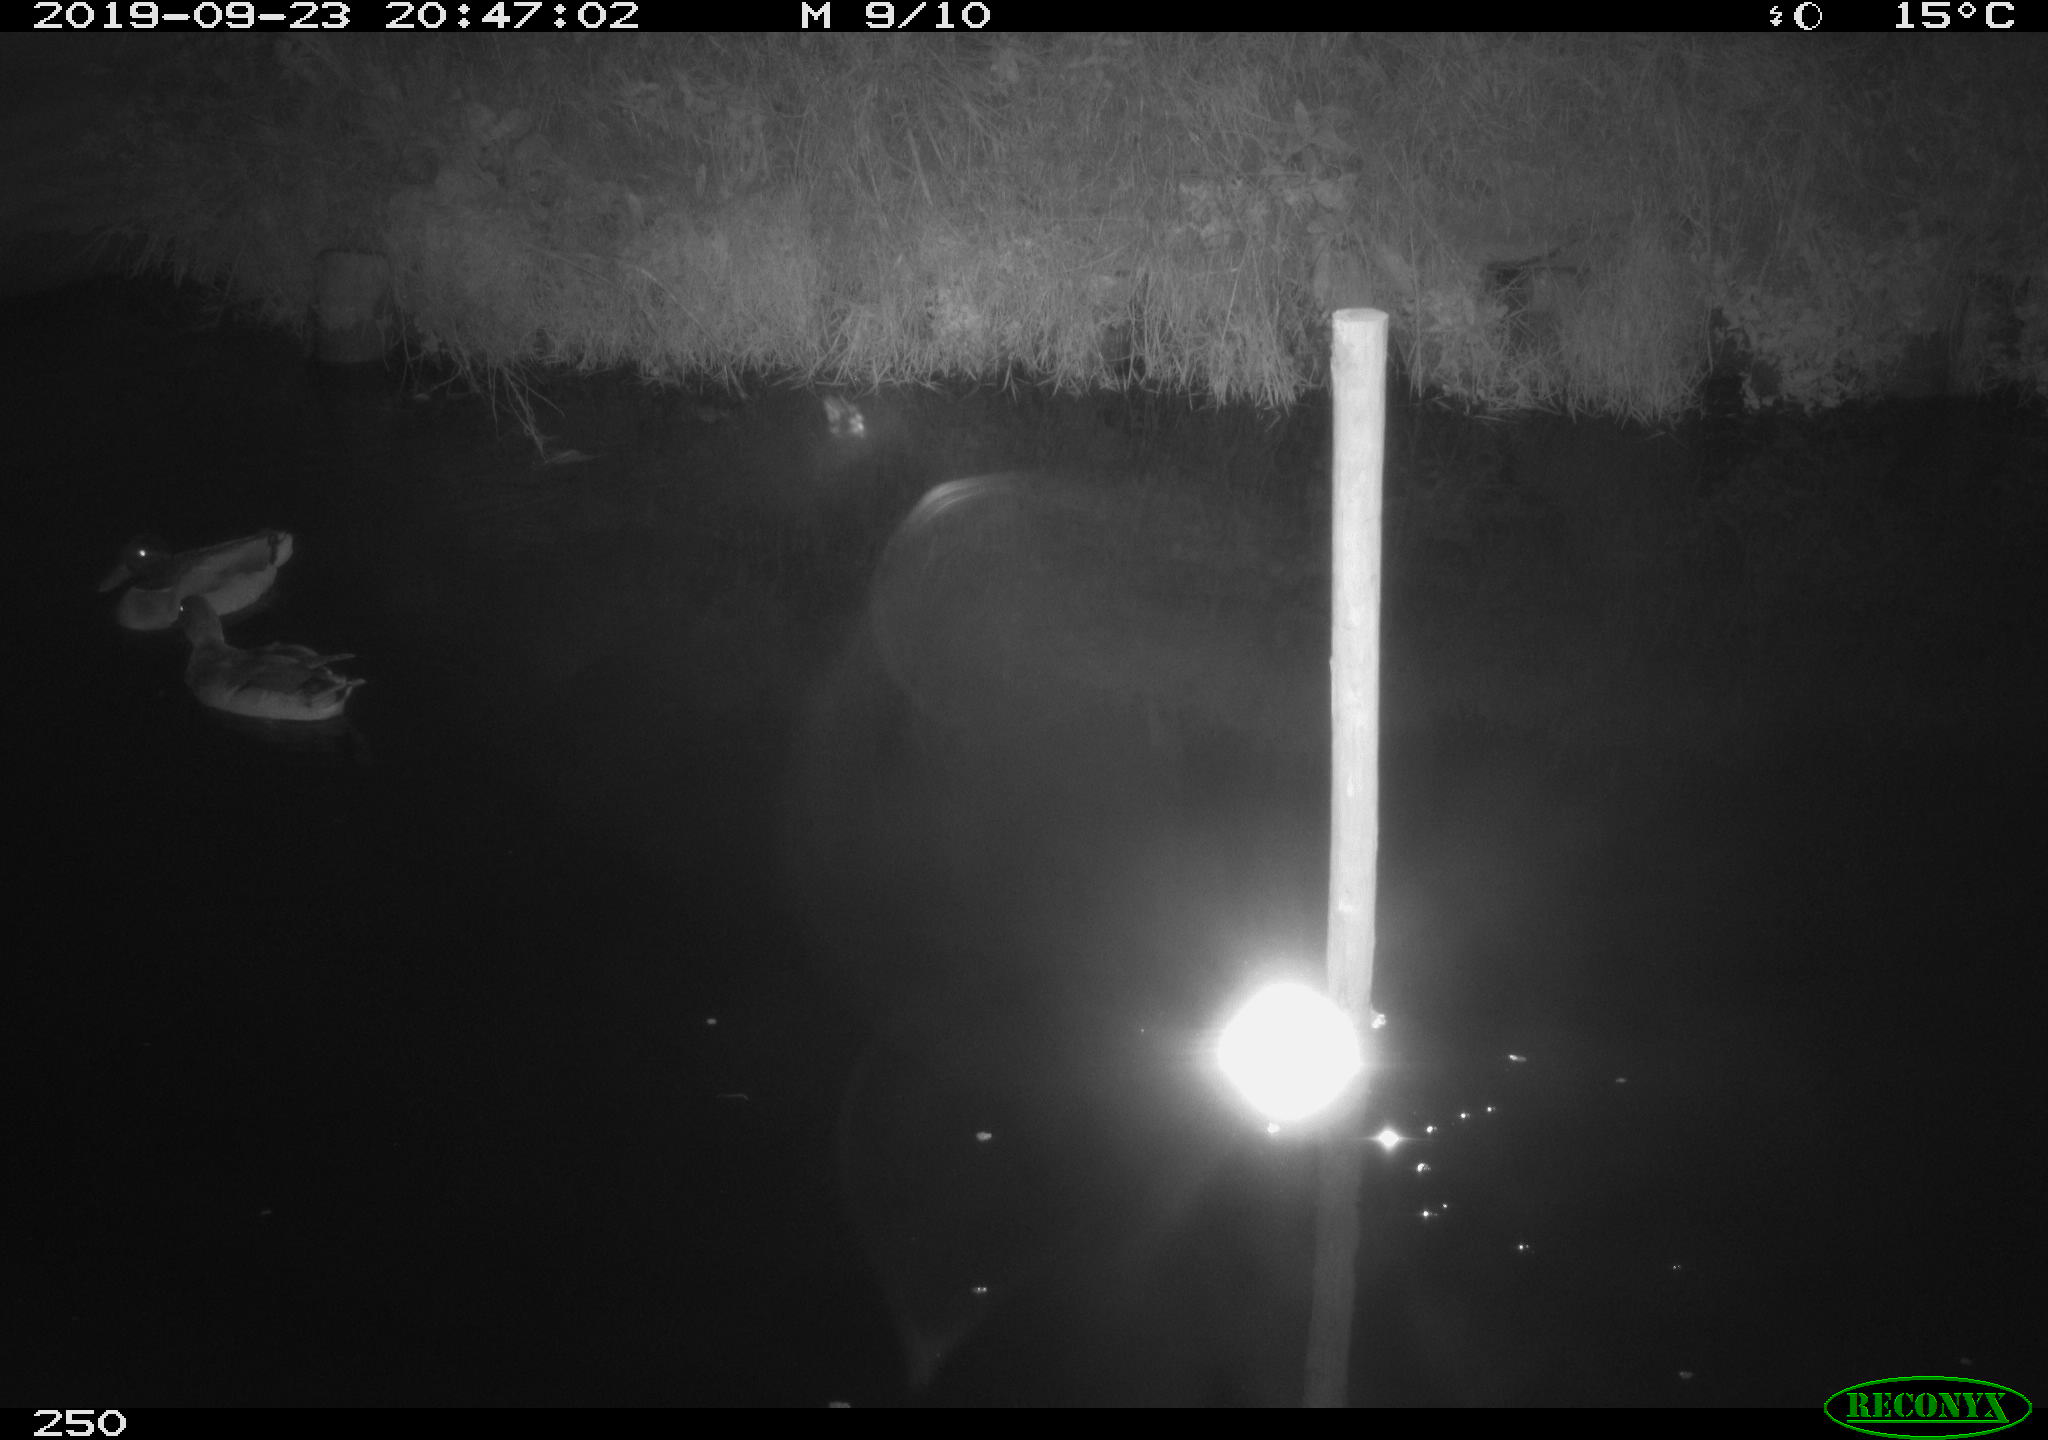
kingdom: Animalia
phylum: Chordata
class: Aves
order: Anseriformes
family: Anatidae
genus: Anas
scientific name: Anas platyrhynchos
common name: Mallard
